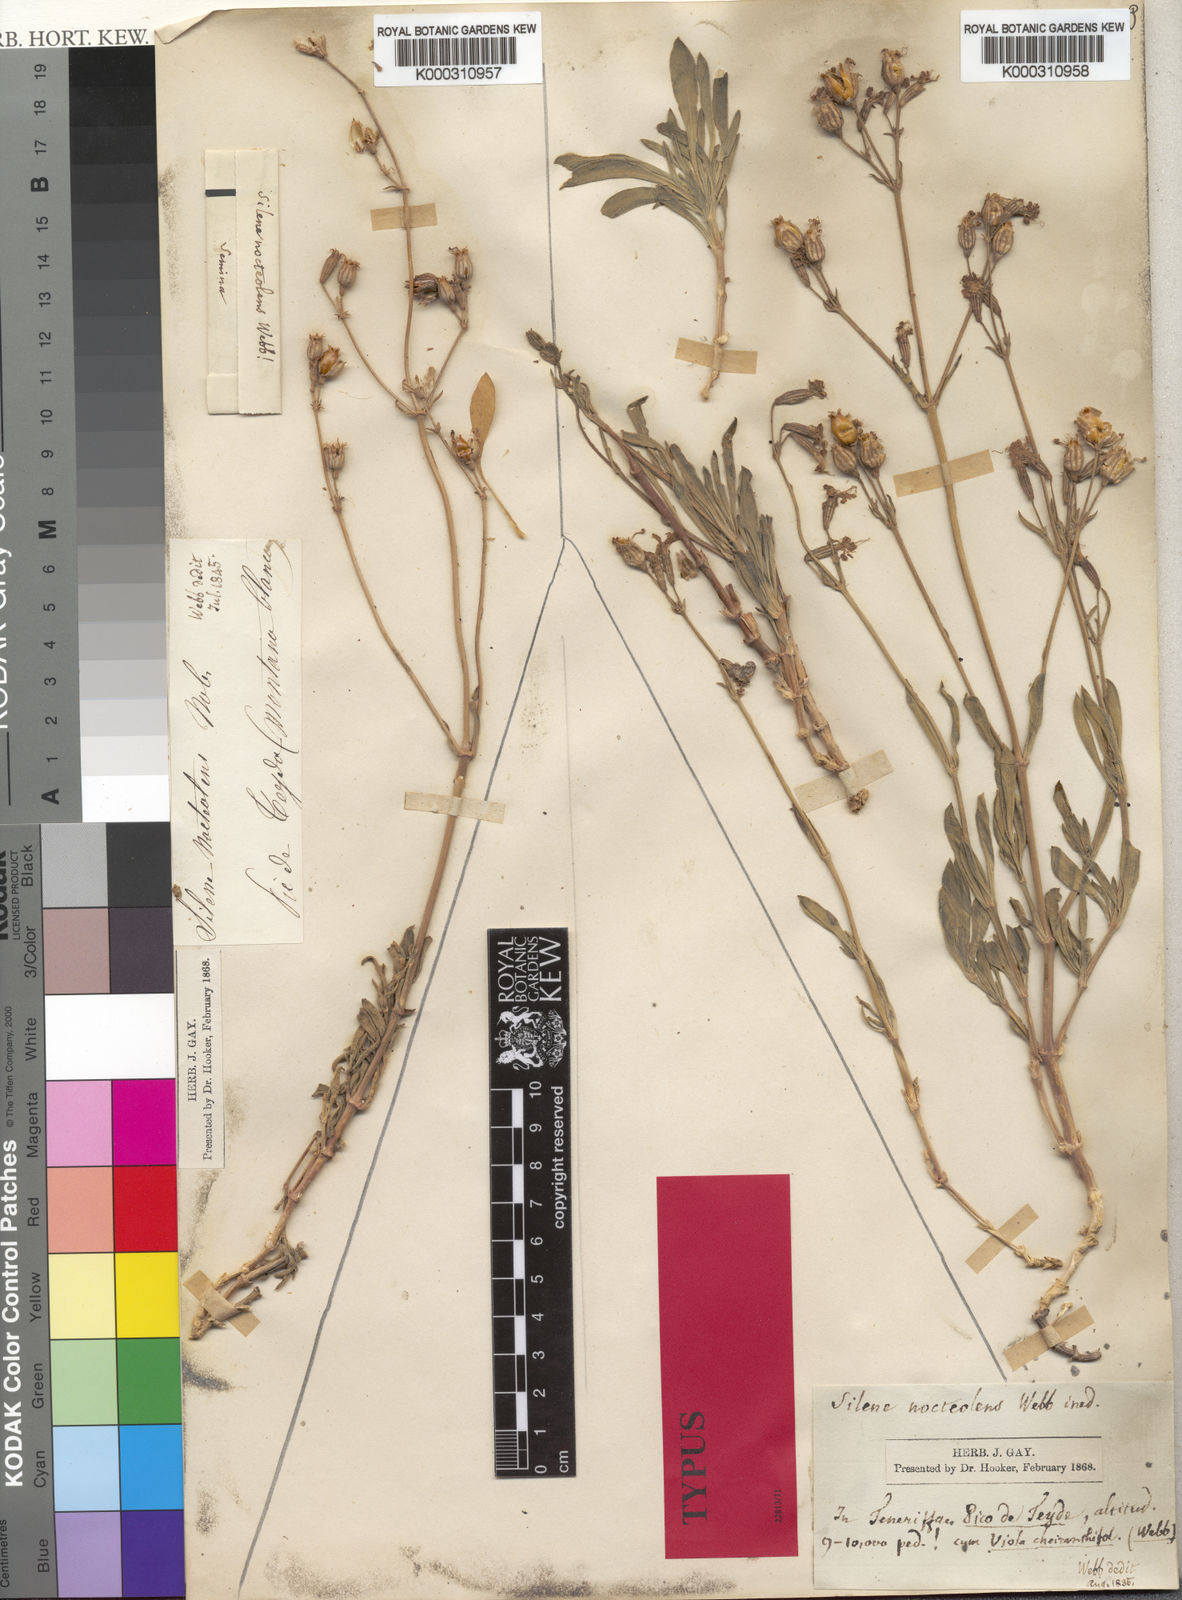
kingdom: Plantae
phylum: Tracheophyta
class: Magnoliopsida
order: Caryophyllales
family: Caryophyllaceae
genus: Silene
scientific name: Silene nocteolens
